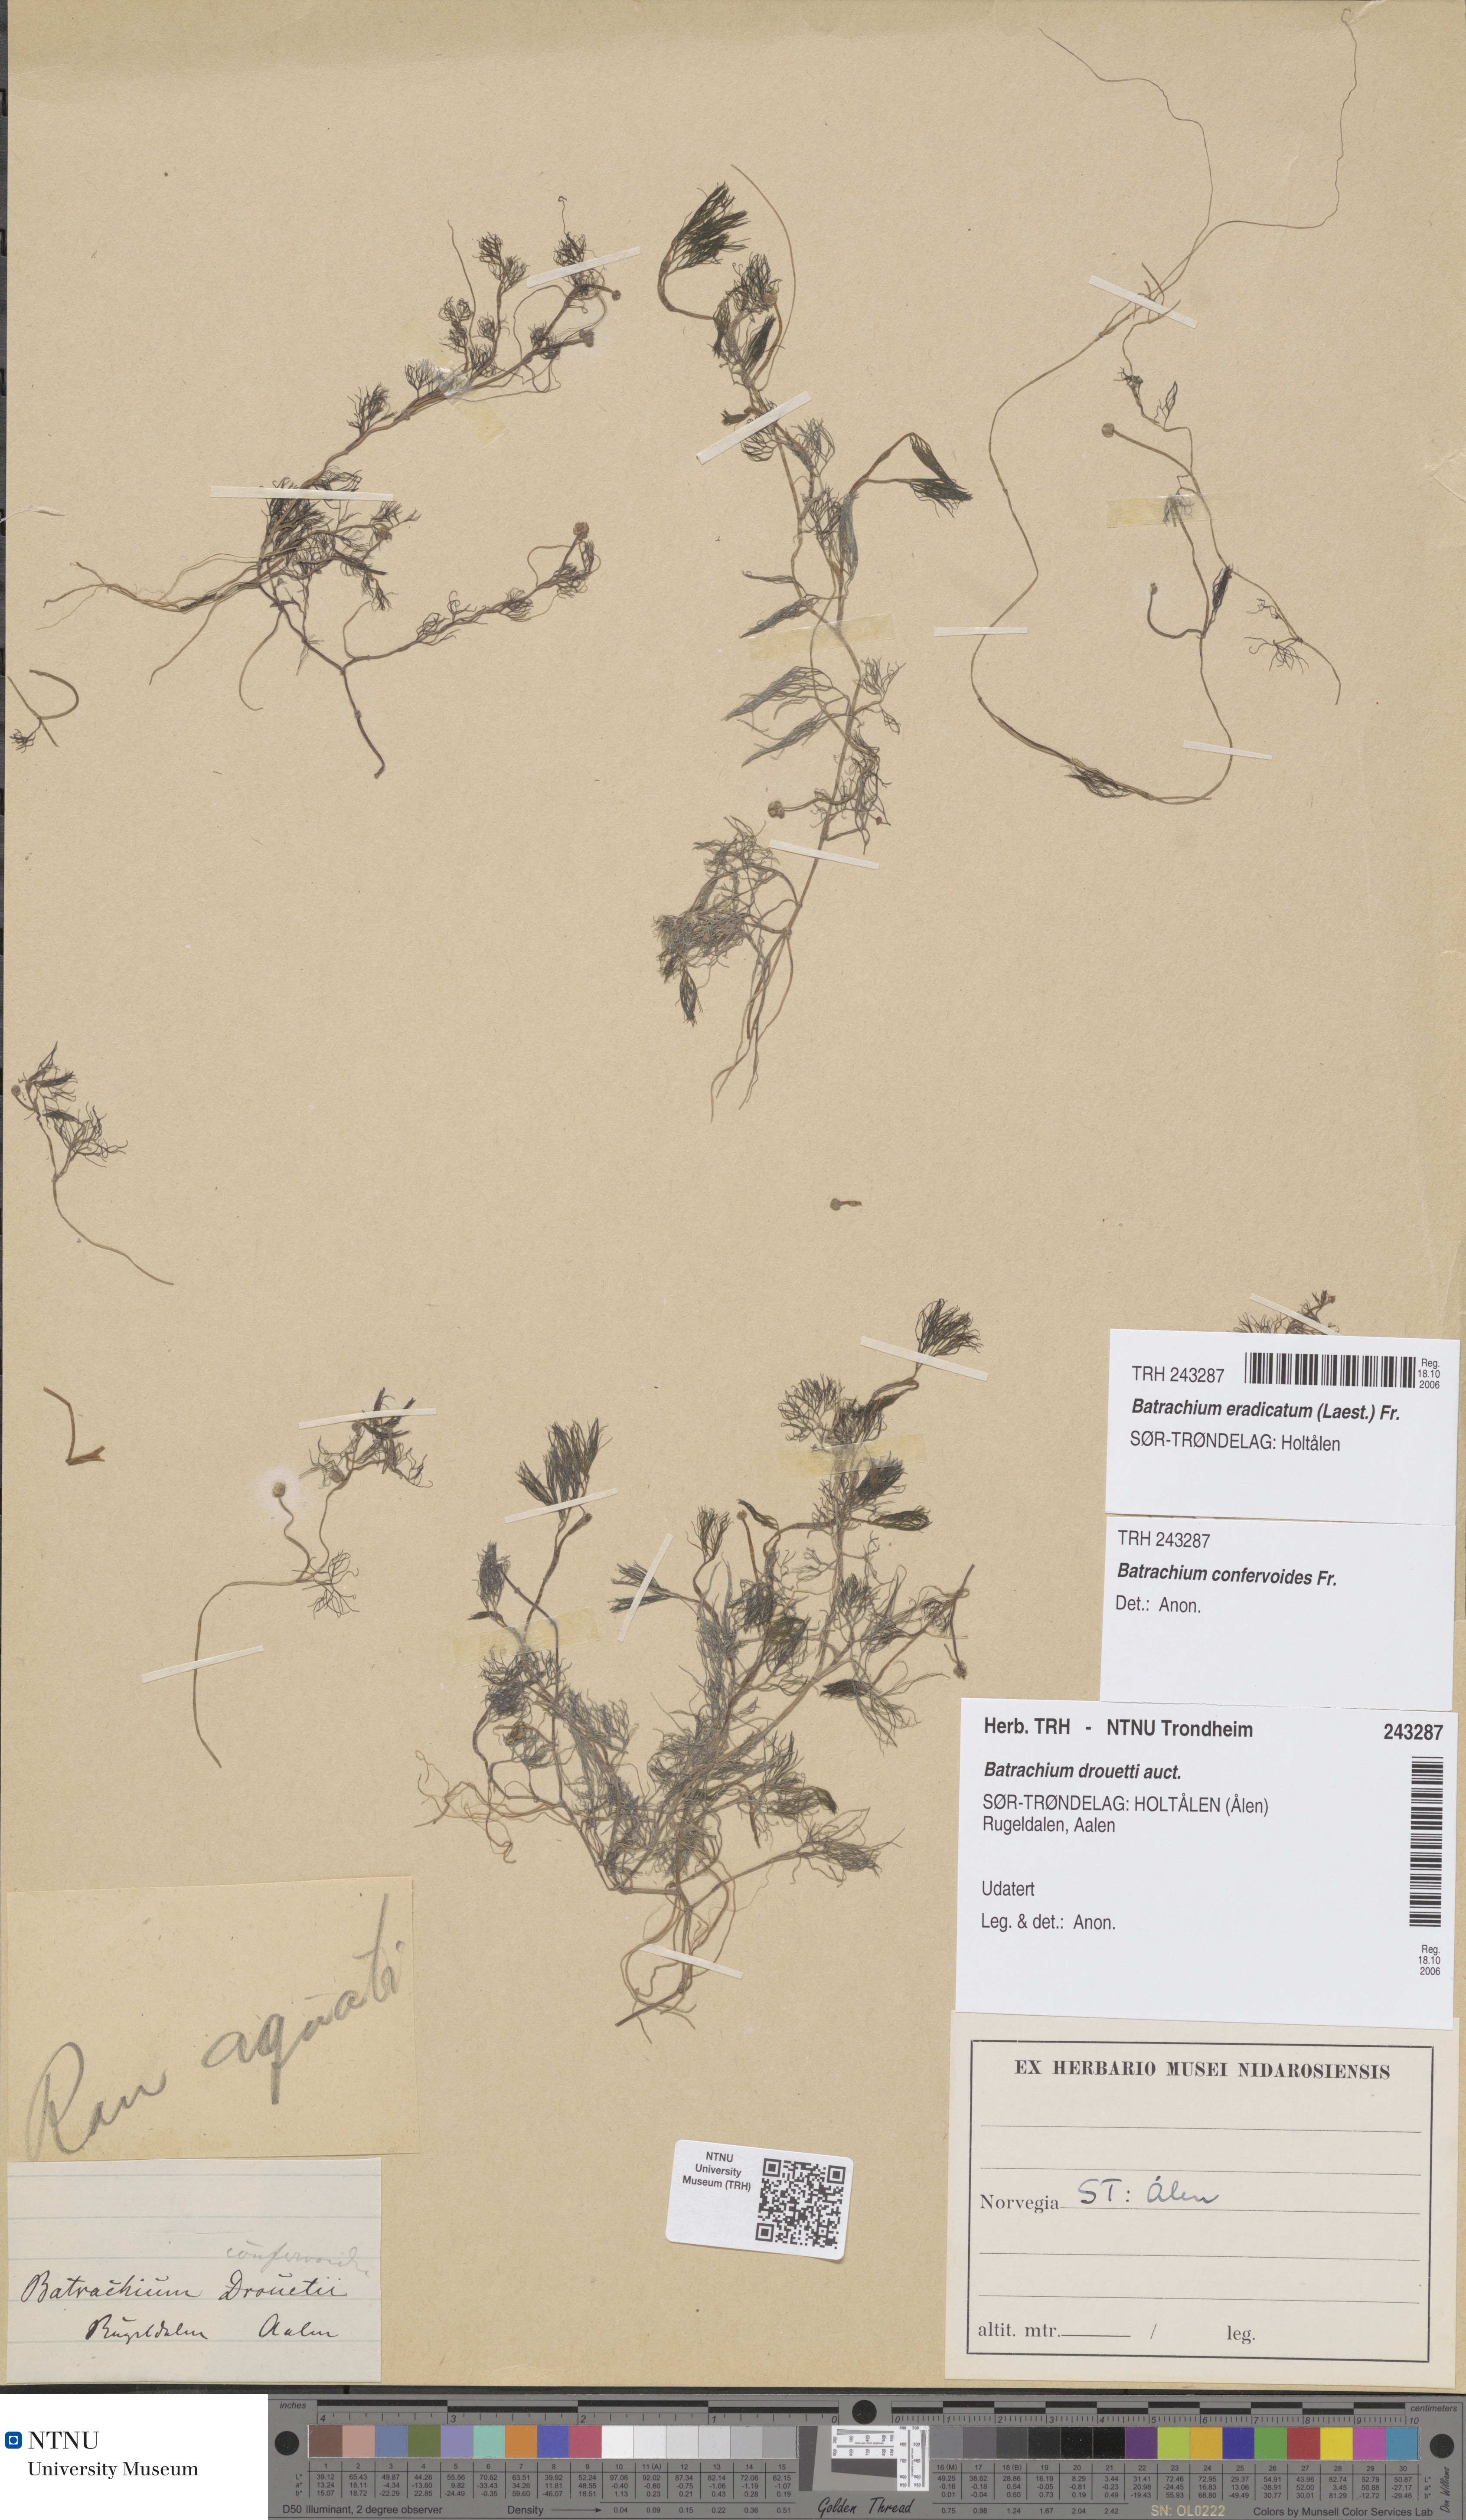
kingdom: Plantae
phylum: Tracheophyta
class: Magnoliopsida
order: Ranunculales
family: Ranunculaceae
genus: Ranunculus
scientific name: Ranunculus confervoides
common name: Delicate buttercup
